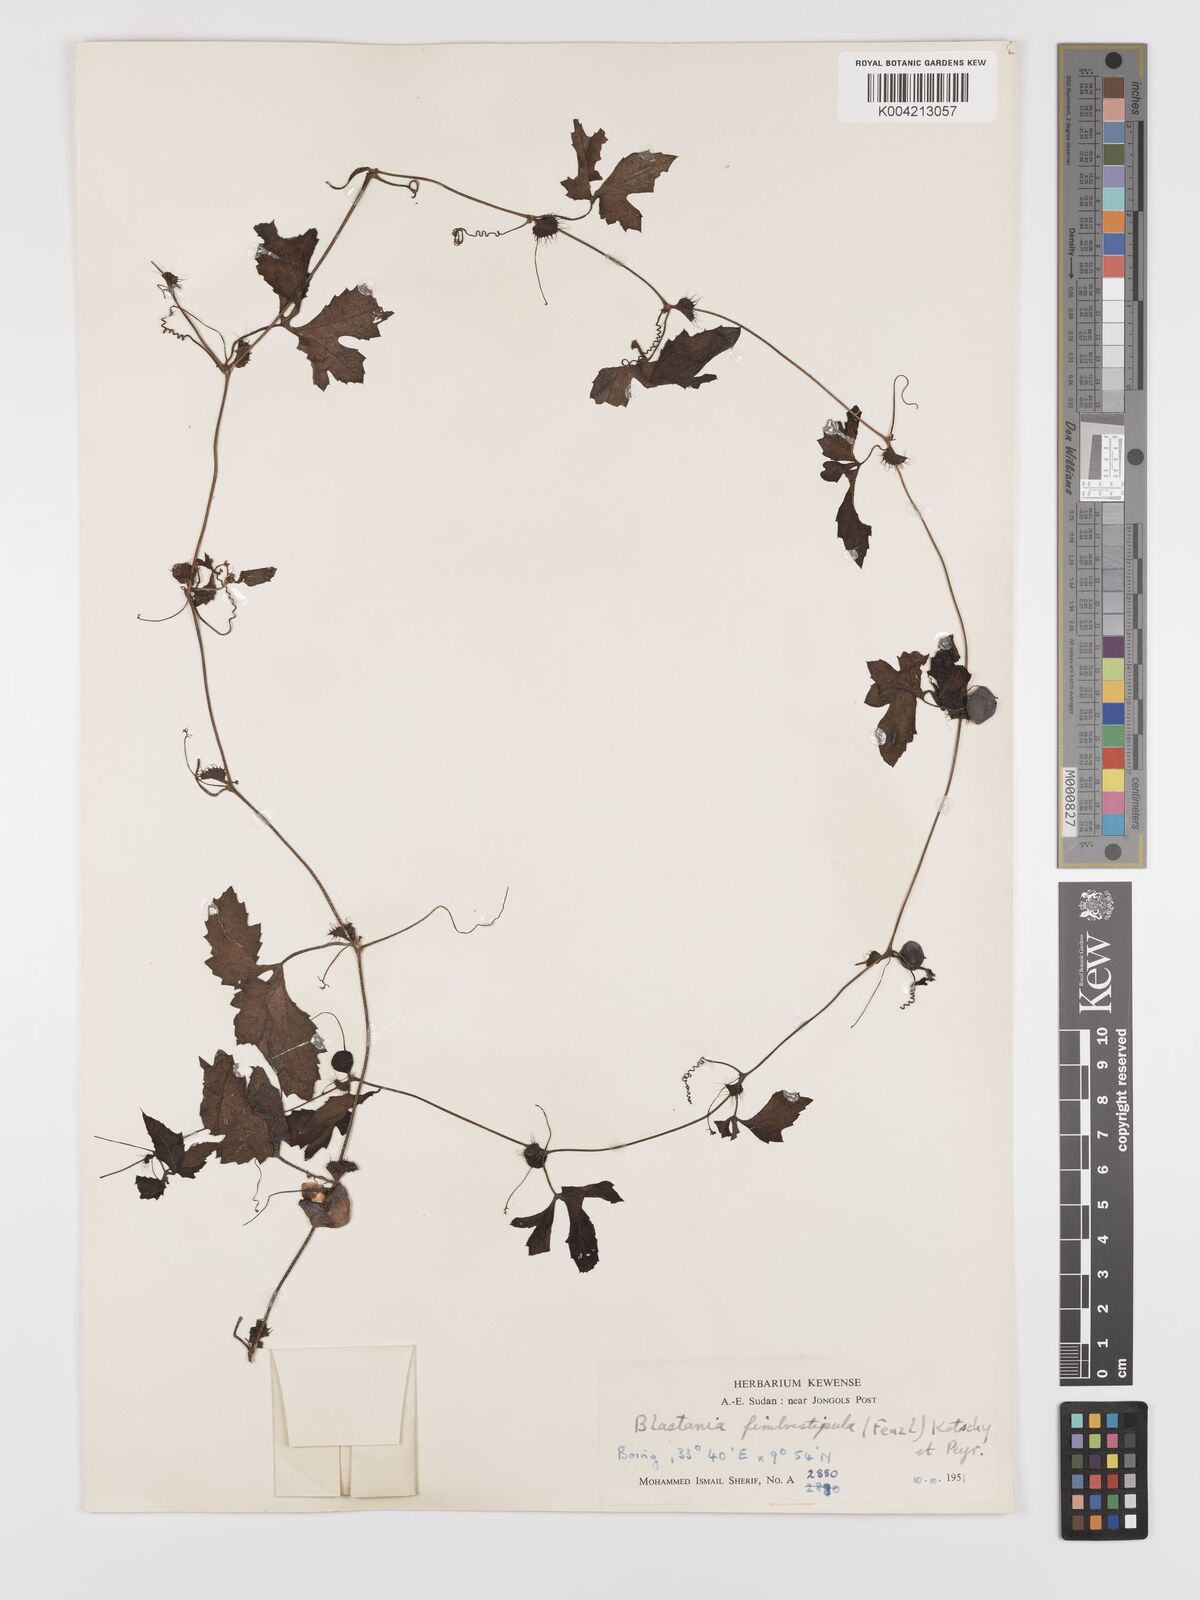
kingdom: Plantae
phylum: Tracheophyta
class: Magnoliopsida
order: Cucurbitales
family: Cucurbitaceae
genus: Blastania
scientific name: Blastania cerasiformis
